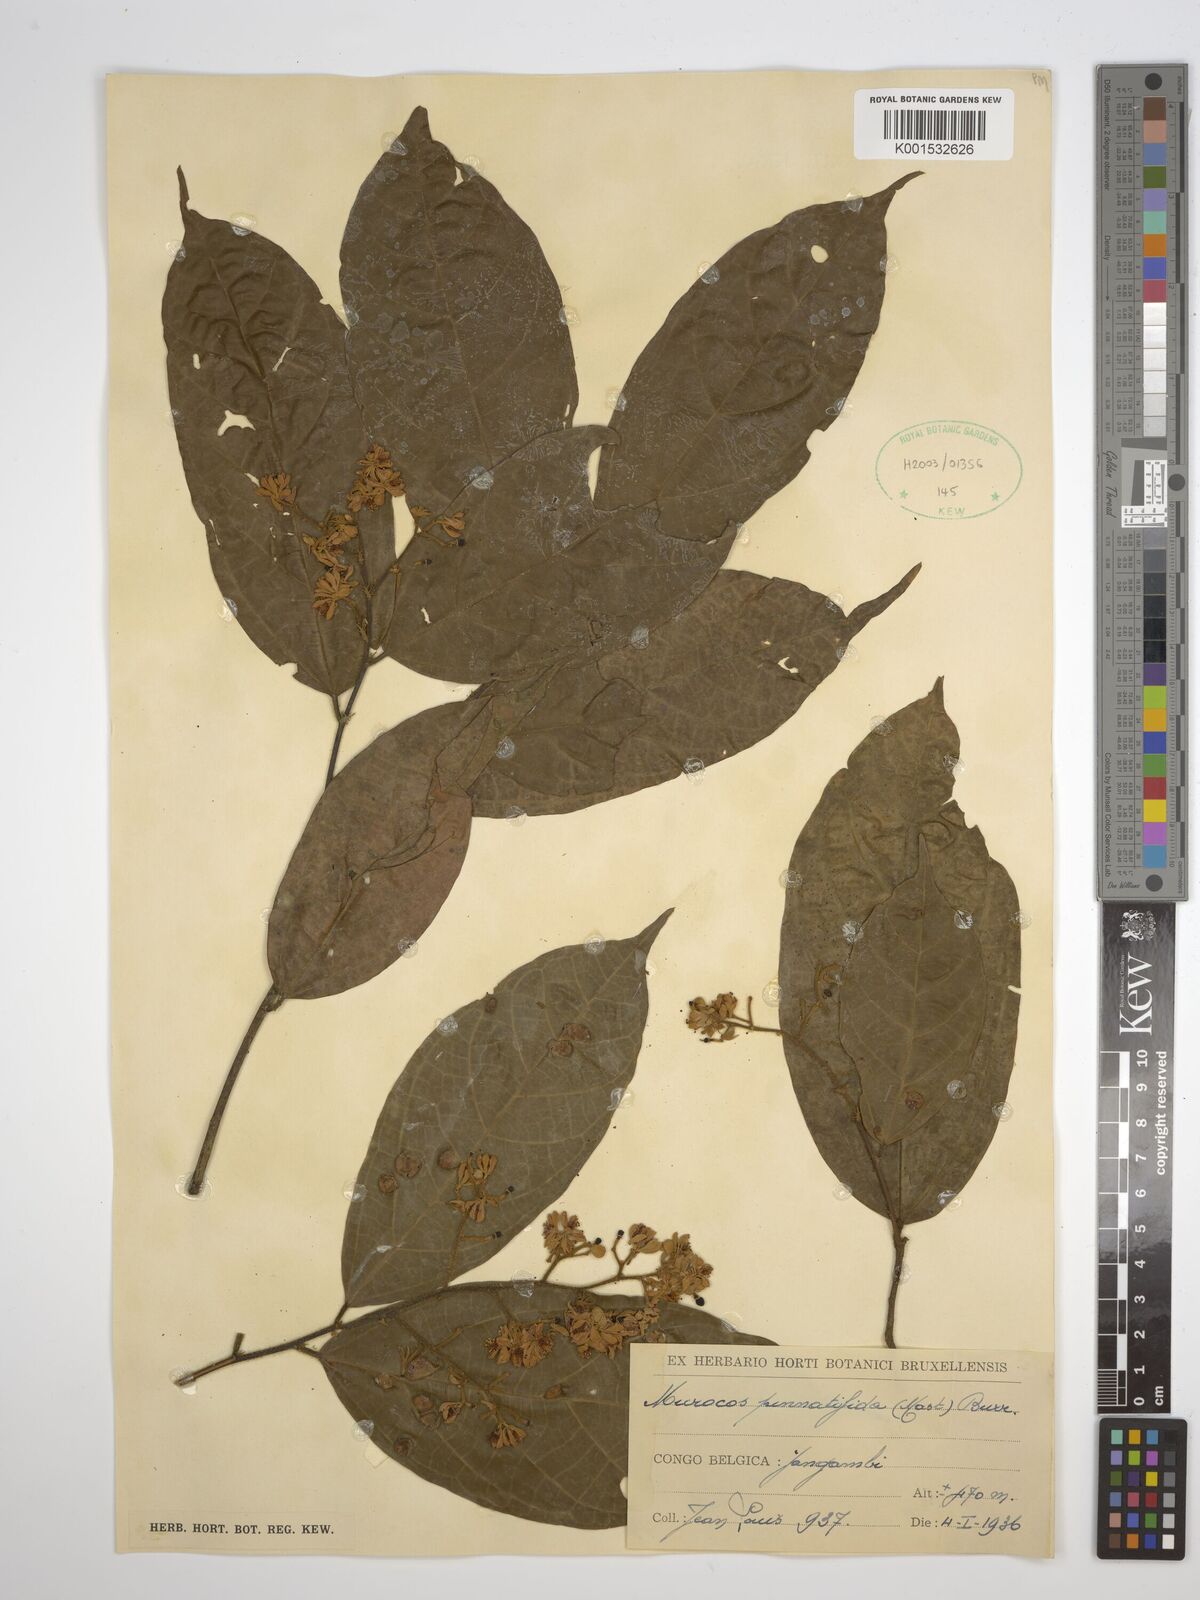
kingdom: Plantae
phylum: Tracheophyta
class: Magnoliopsida
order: Malvales
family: Malvaceae
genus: Microcos
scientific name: Microcos pinnatifida
